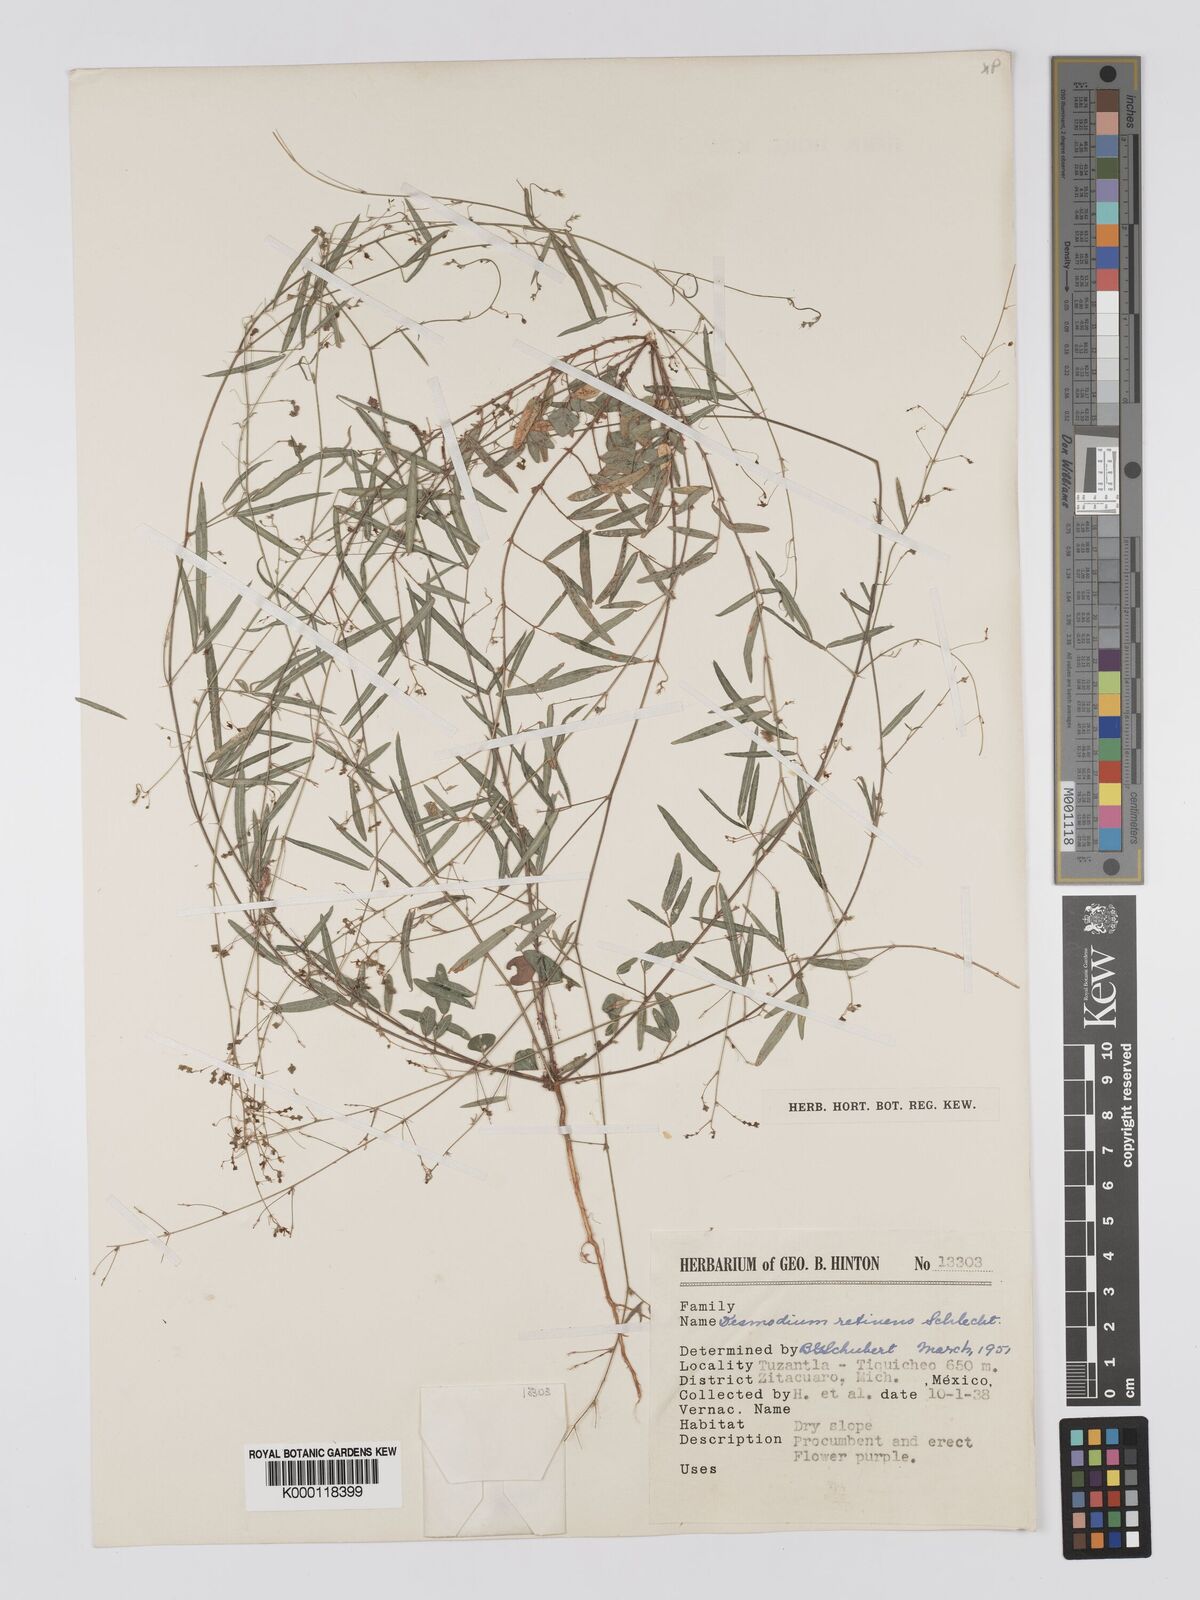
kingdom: Plantae
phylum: Tracheophyta
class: Magnoliopsida
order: Fabales
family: Fabaceae
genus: Desmodium
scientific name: Desmodium retinens
